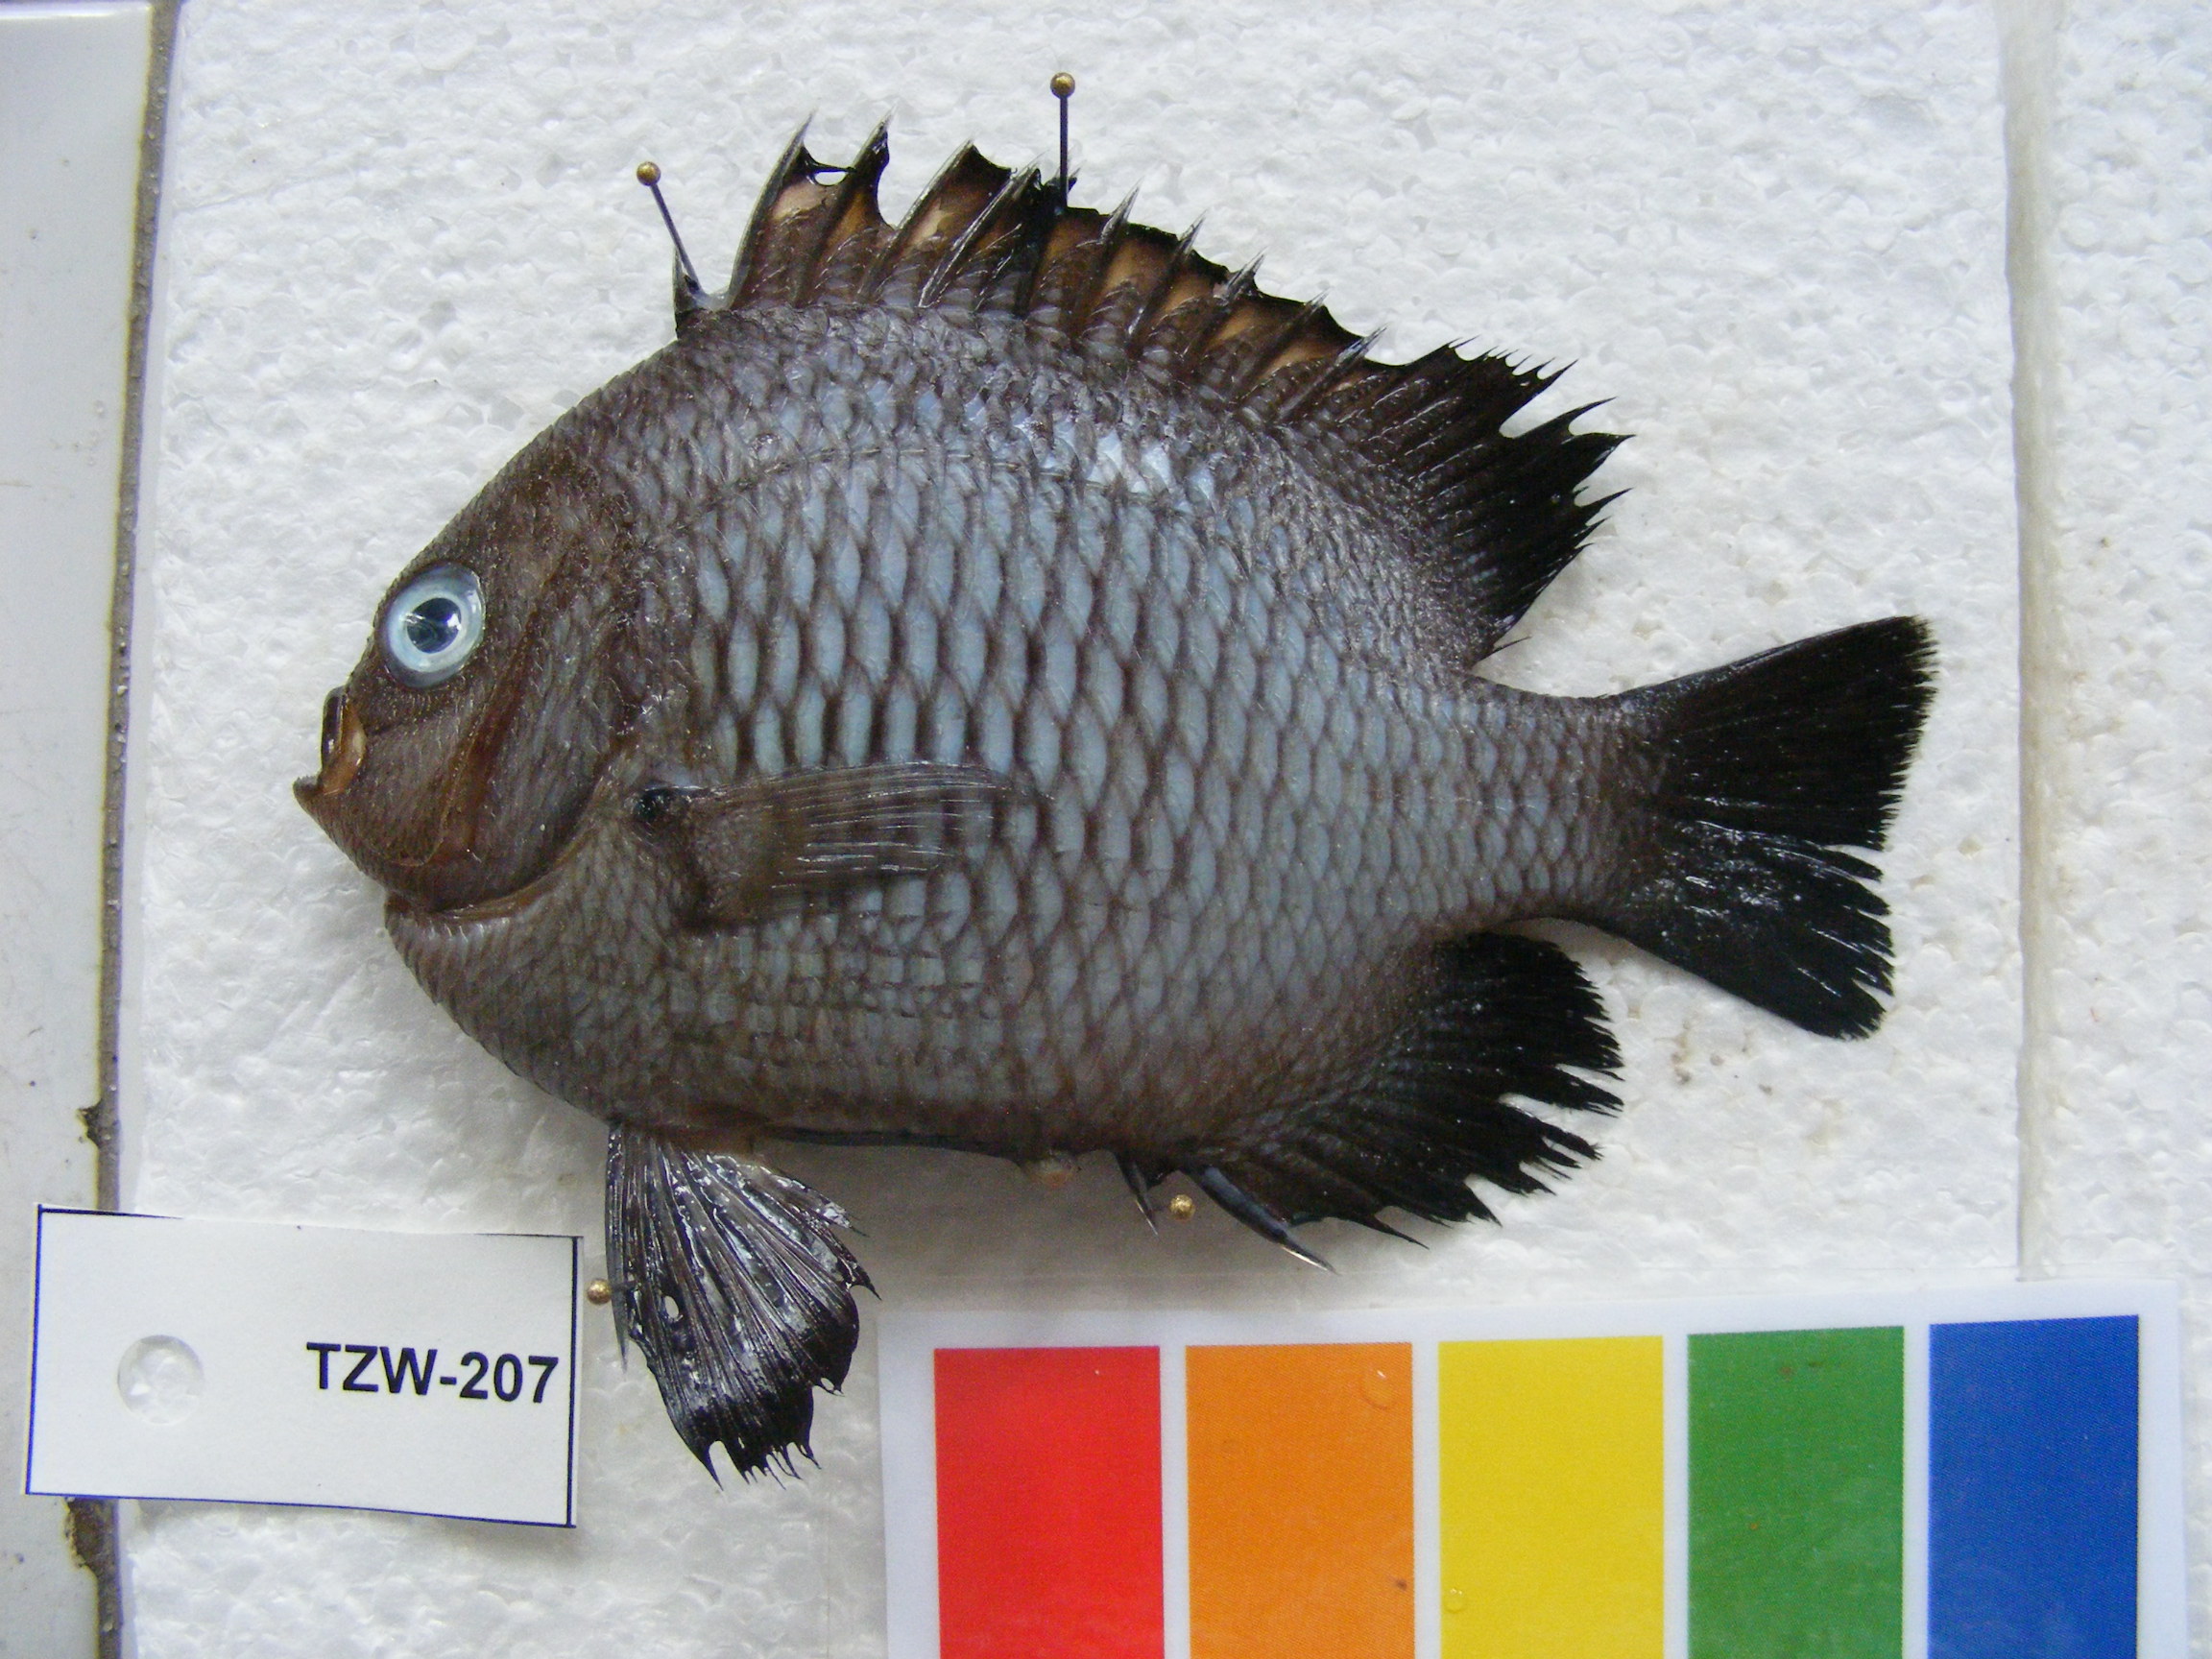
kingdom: Animalia
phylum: Chordata
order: Perciformes
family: Pomacentridae
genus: Dascyllus
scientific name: Dascyllus trimaculatus
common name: Threespot dascyllus
